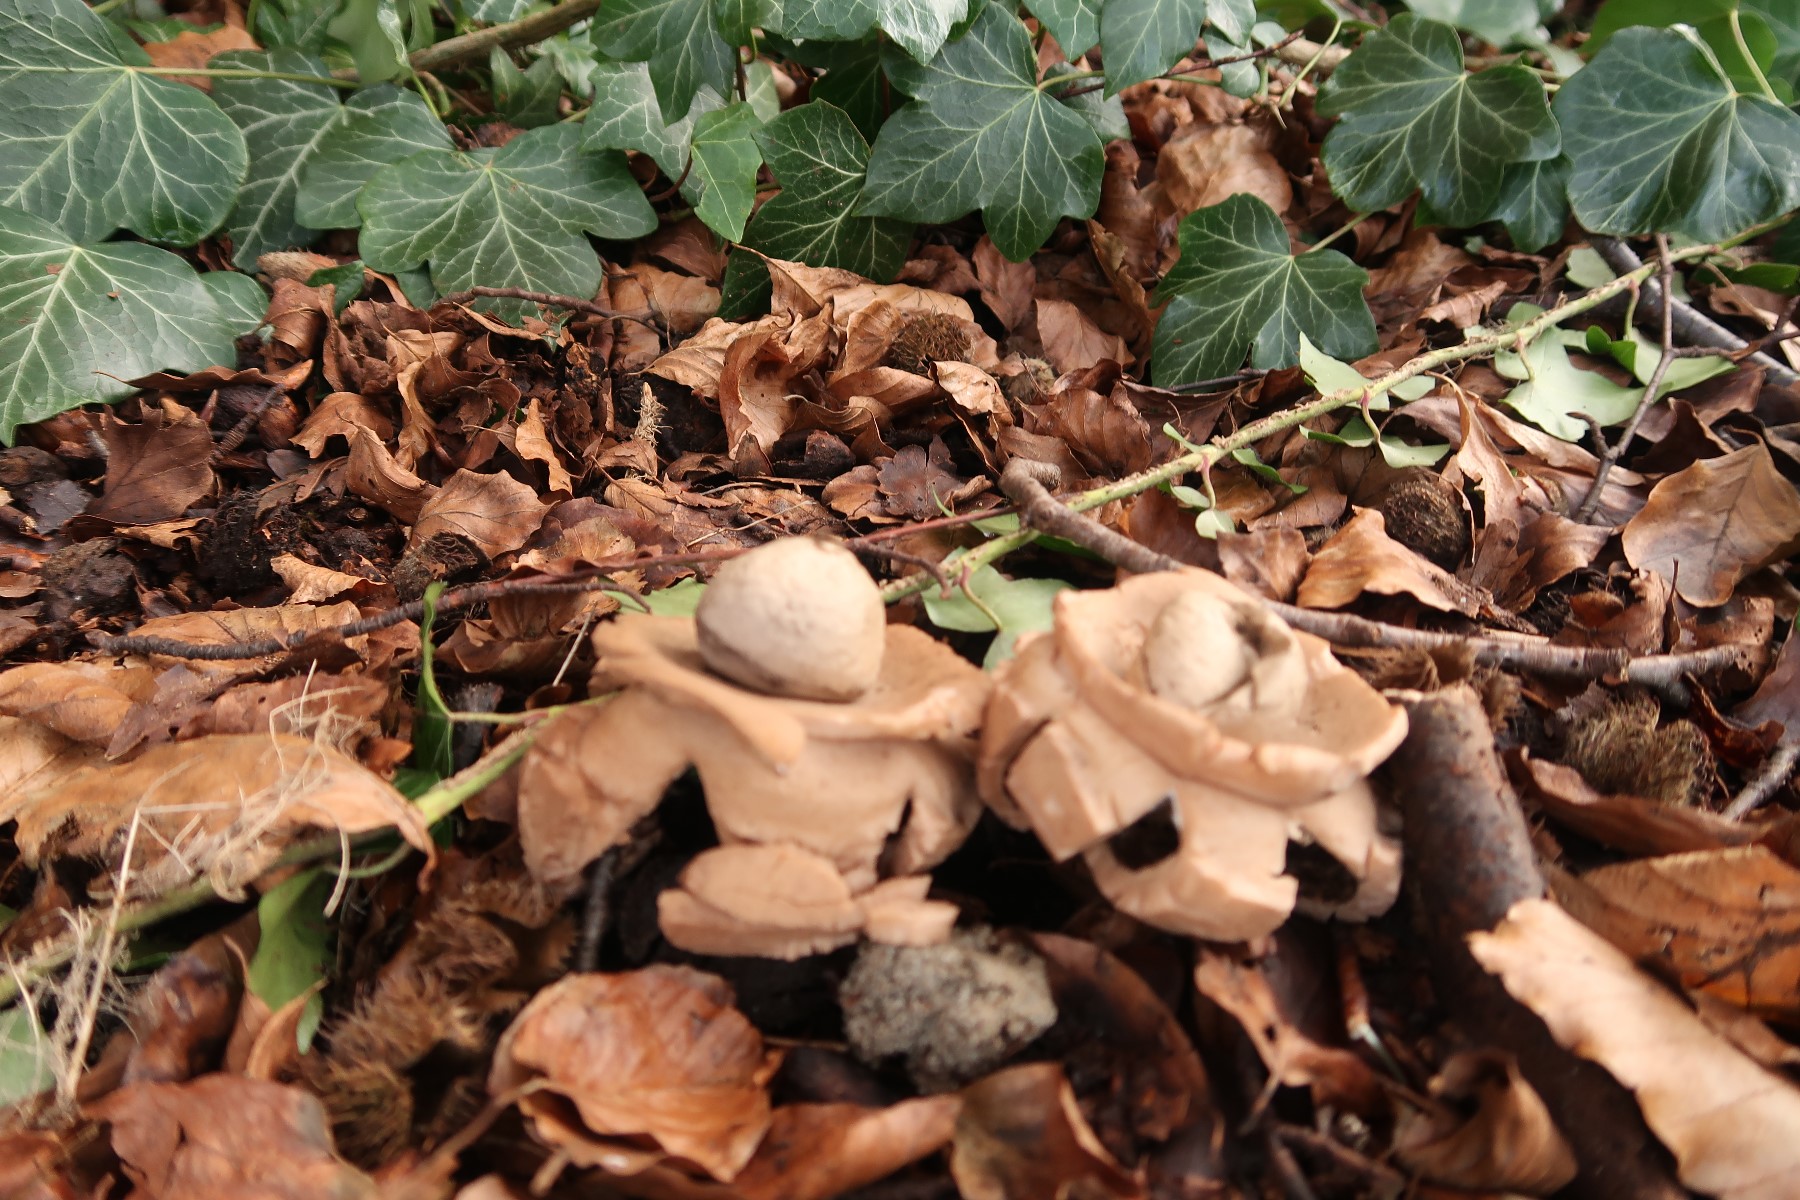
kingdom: Fungi
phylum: Basidiomycota
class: Agaricomycetes
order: Geastrales
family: Geastraceae
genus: Geastrum
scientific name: Geastrum michelianum
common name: kødet stjernebold
